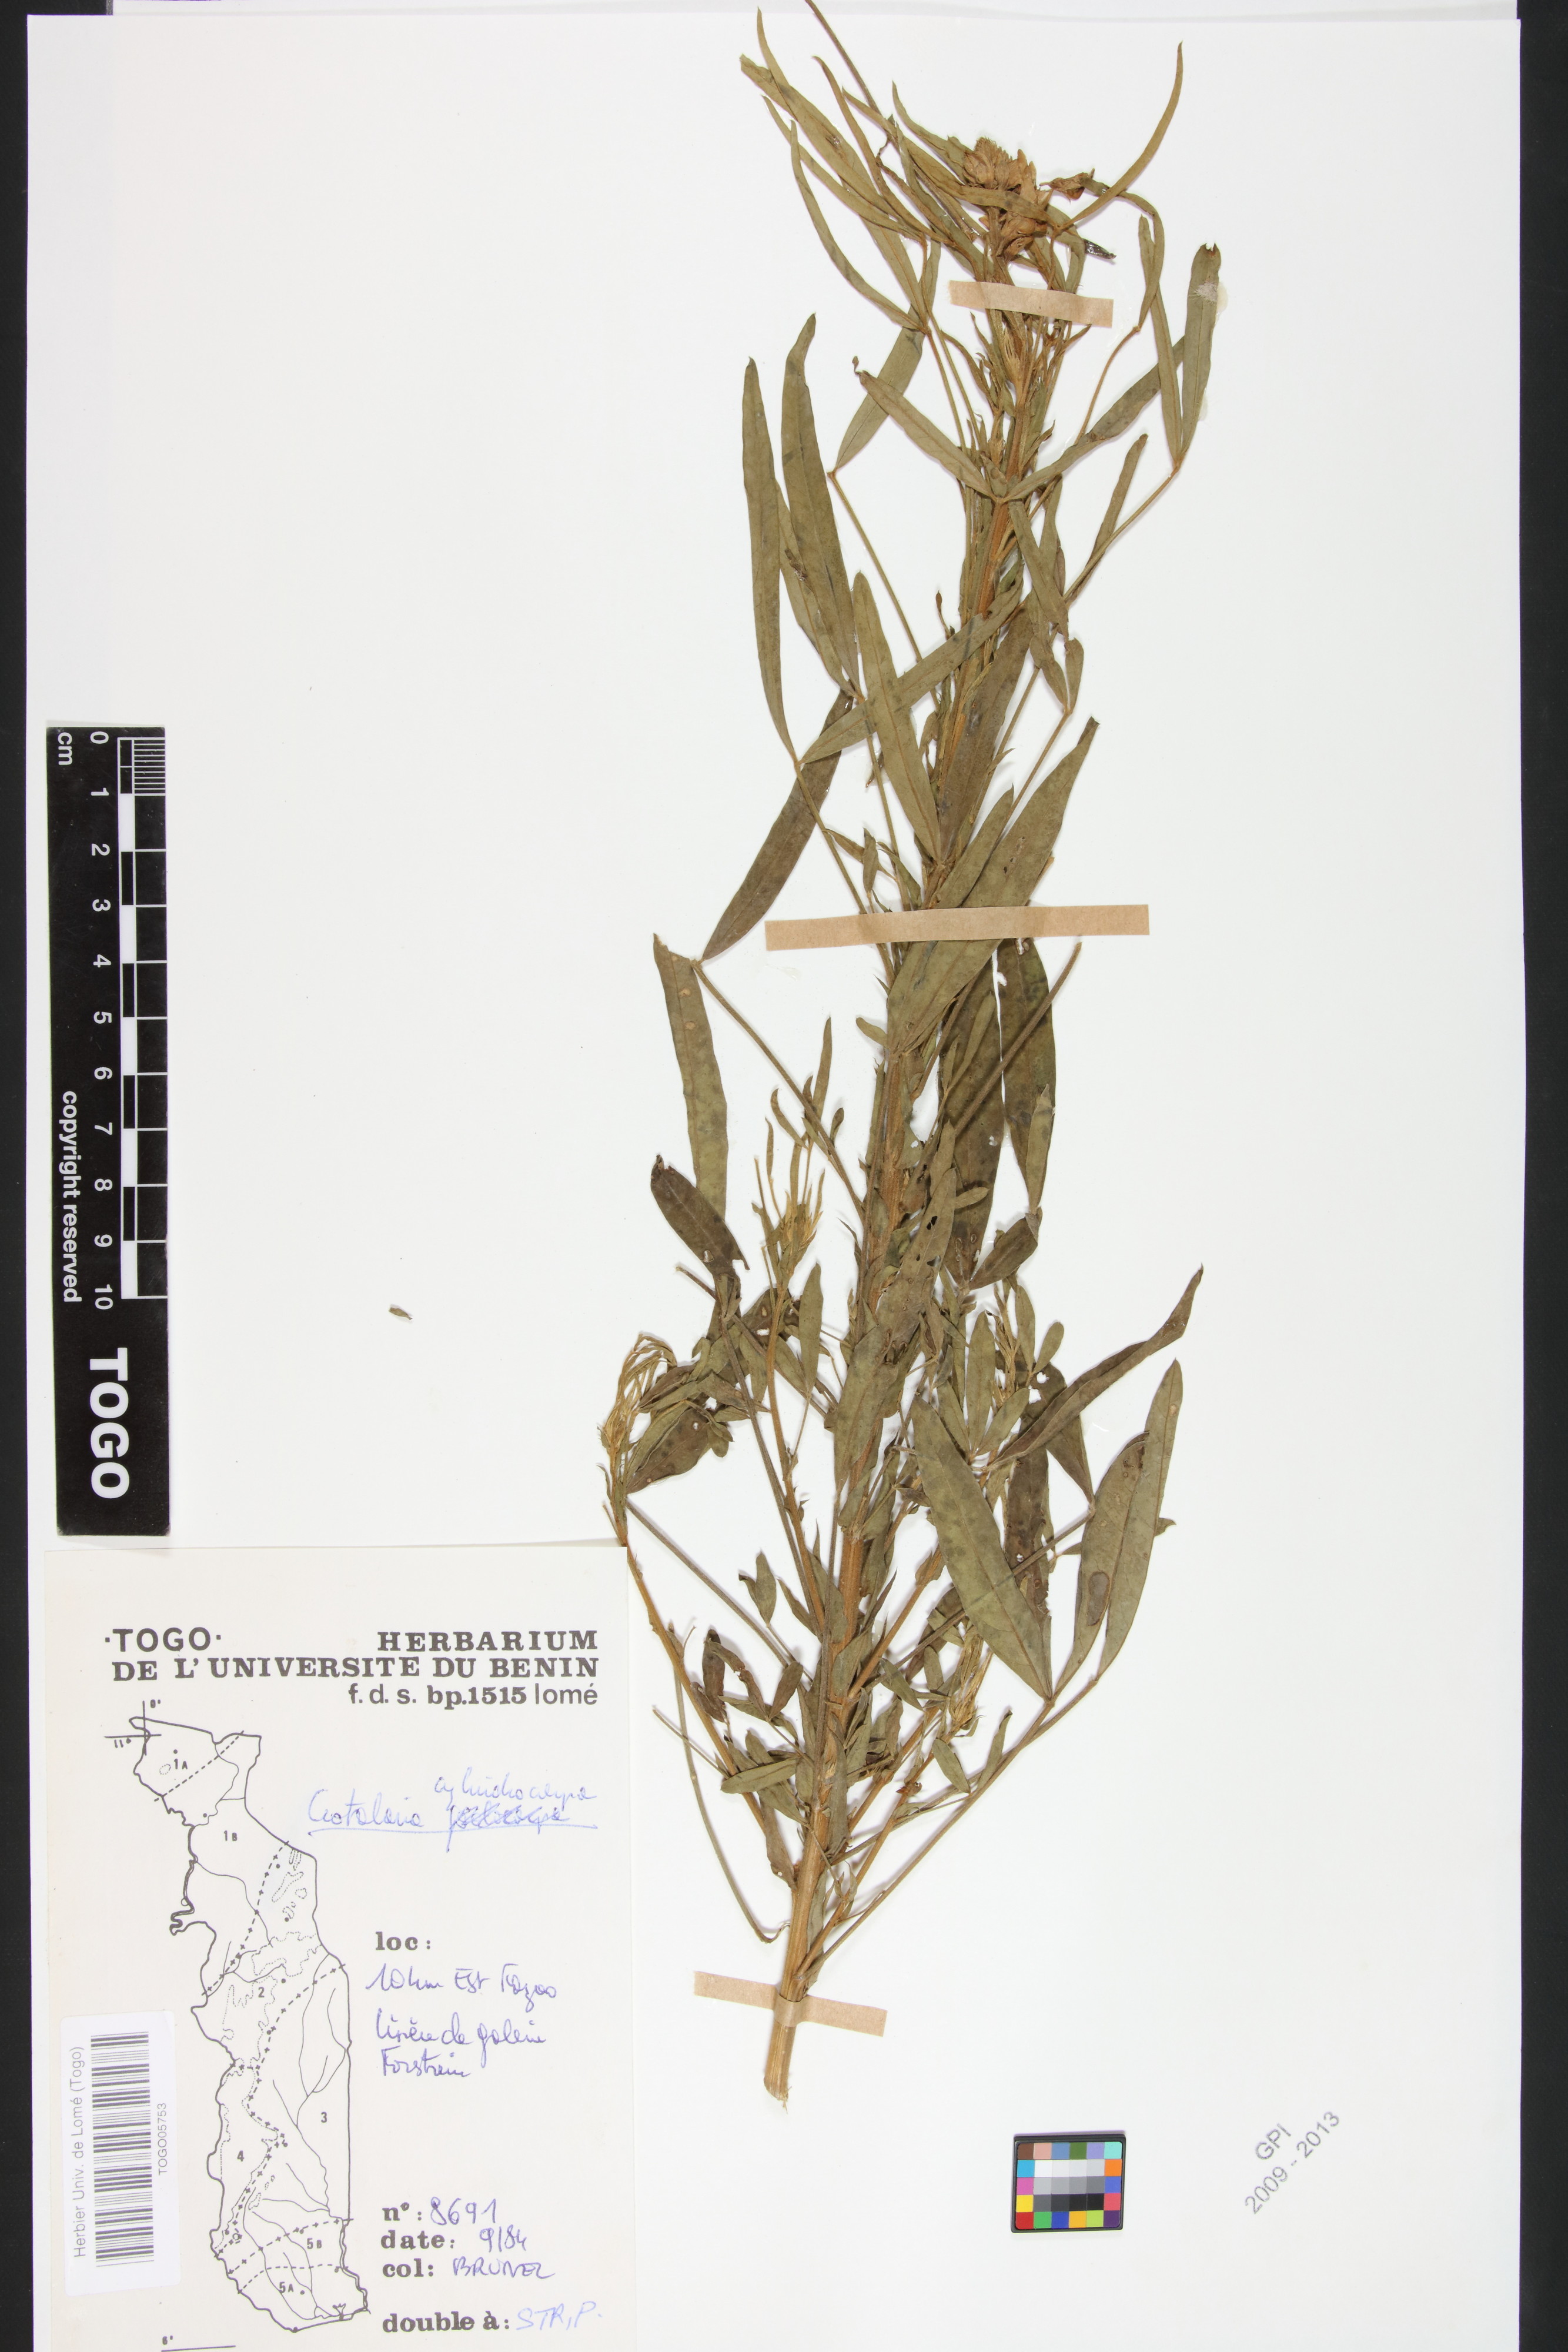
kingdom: Plantae
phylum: Tracheophyta
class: Magnoliopsida
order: Fabales
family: Fabaceae
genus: Crotalaria
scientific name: Crotalaria cylindrocarpa
